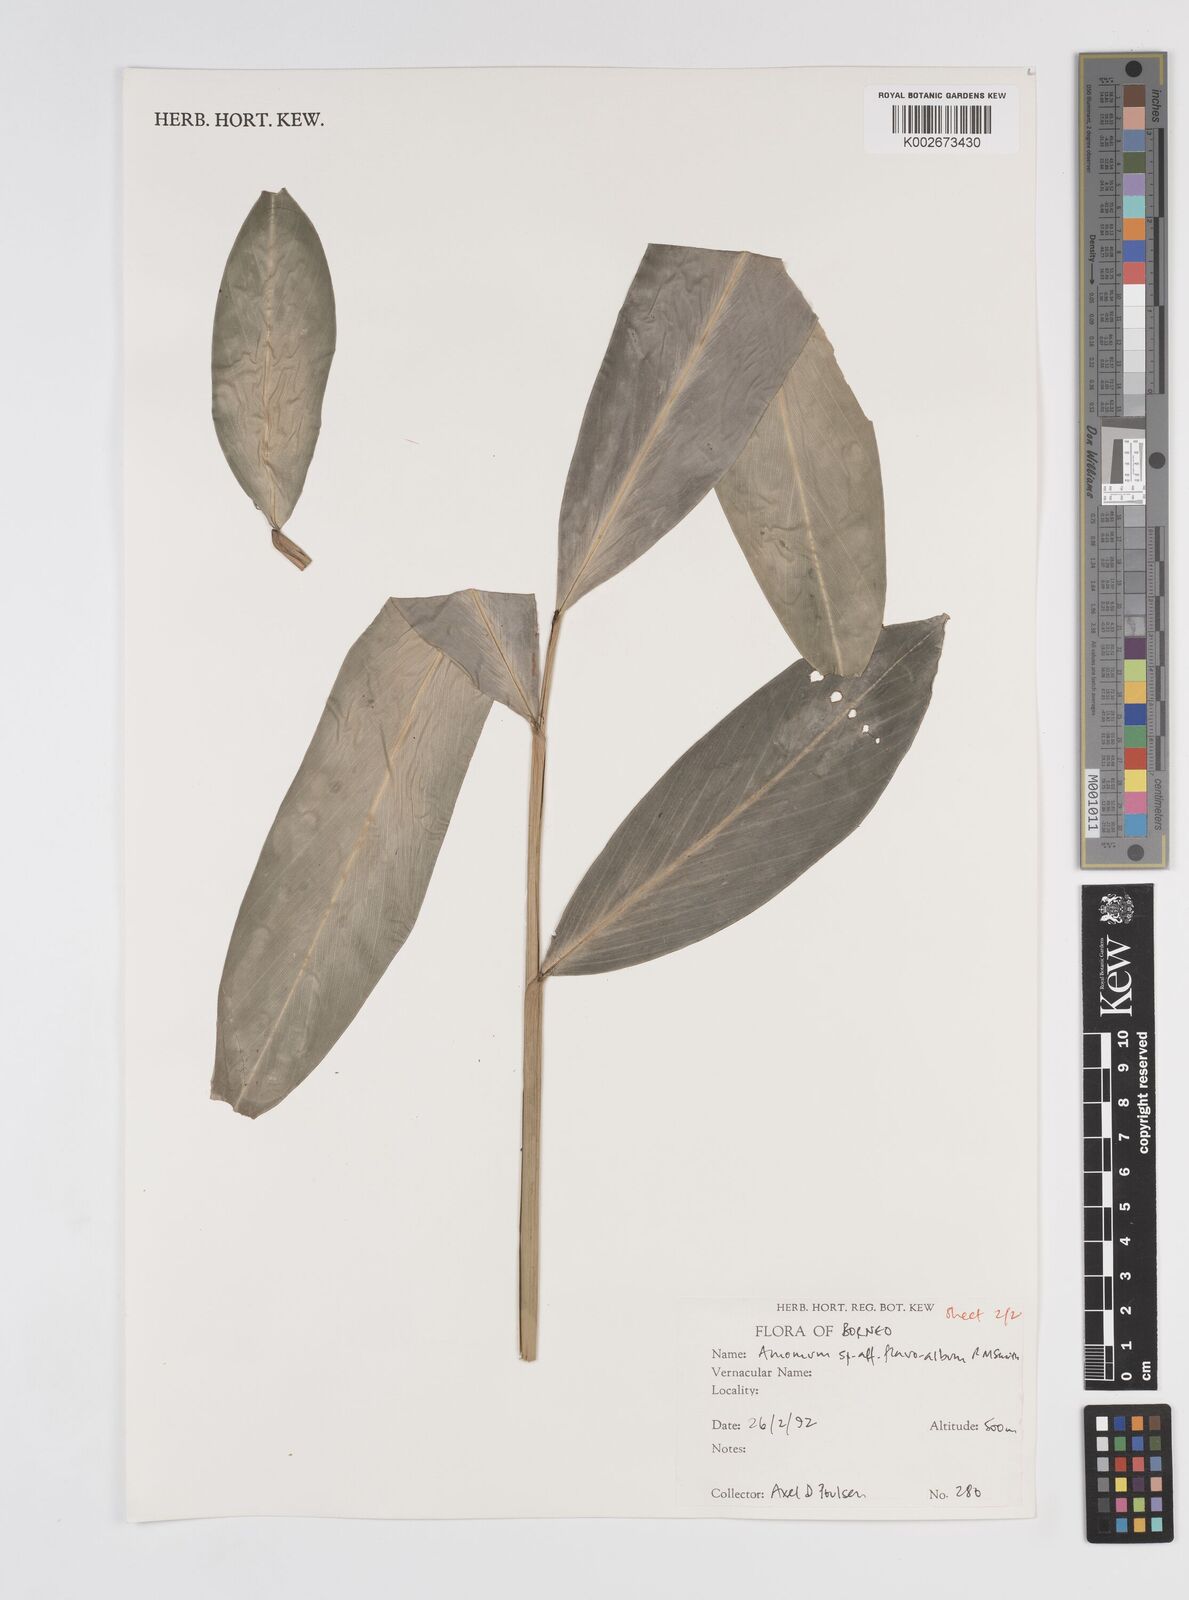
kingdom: Plantae
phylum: Tracheophyta
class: Liliopsida
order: Zingiberales
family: Zingiberaceae
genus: Sundamomum
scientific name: Sundamomum flavoalbum
